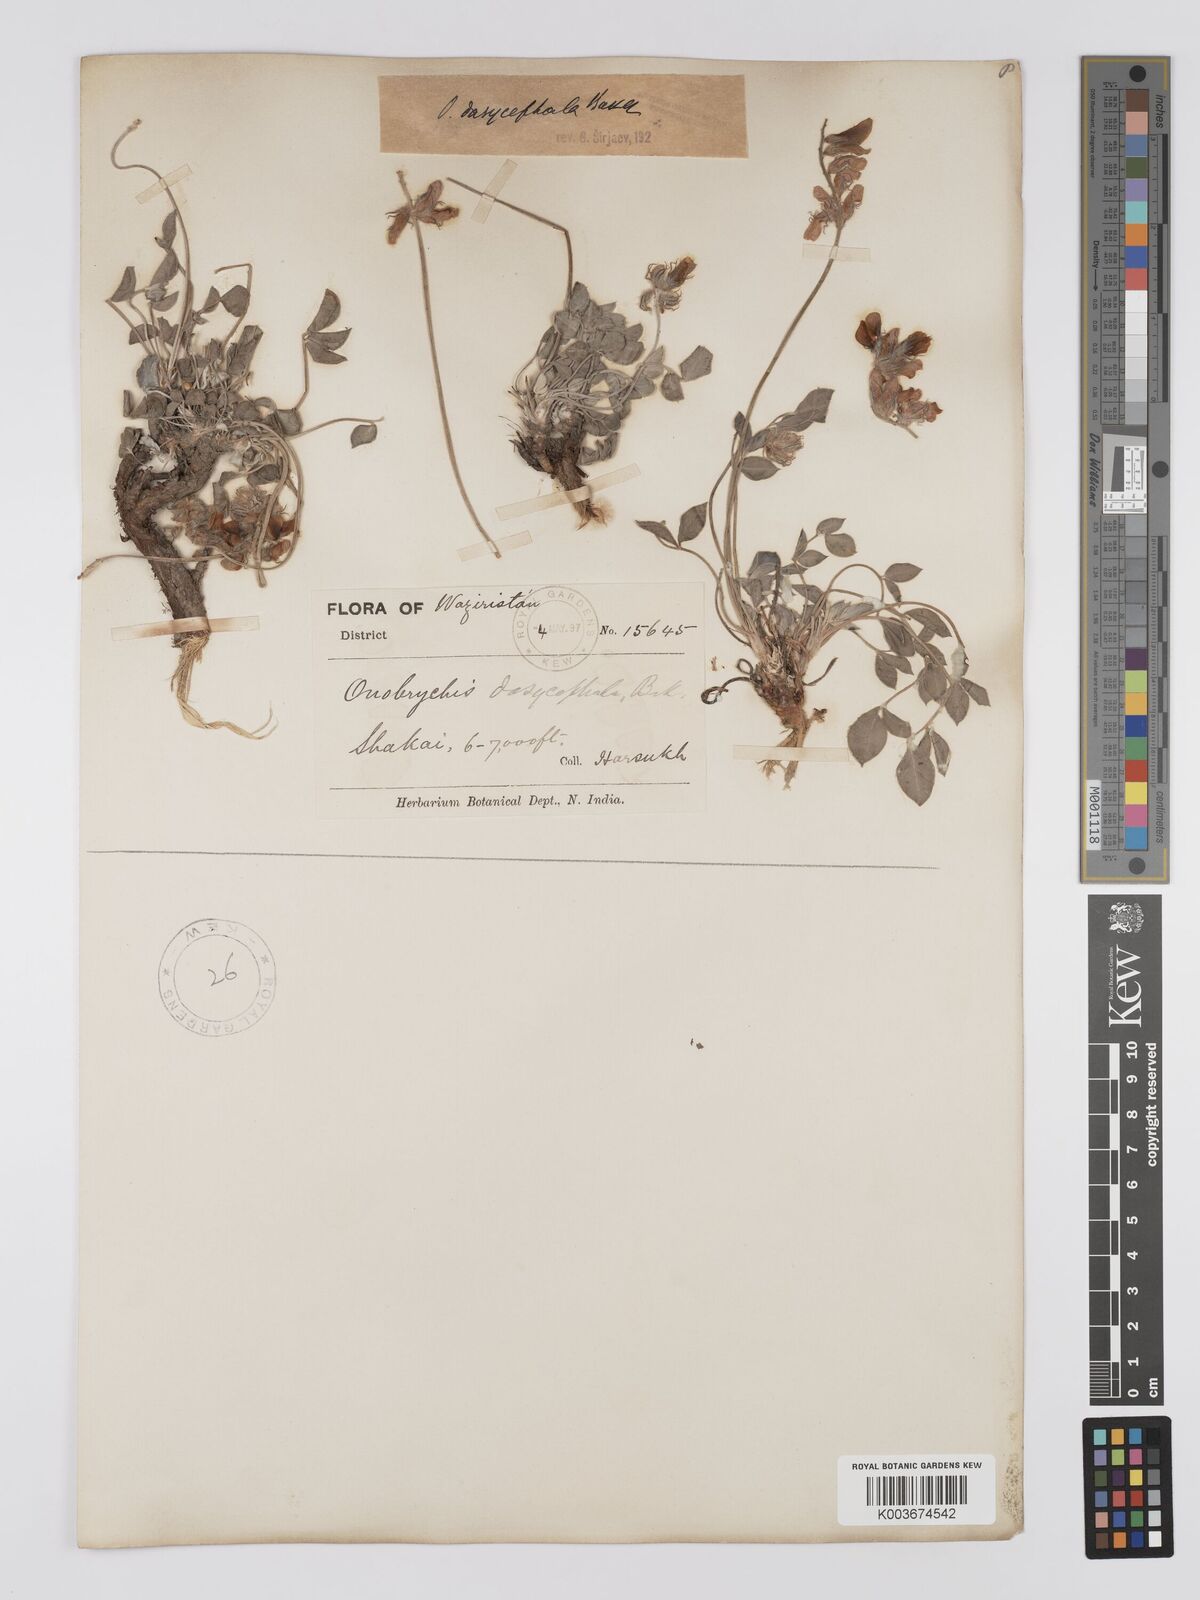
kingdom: Plantae
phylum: Tracheophyta
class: Magnoliopsida
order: Fabales
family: Fabaceae
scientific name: Fabaceae
